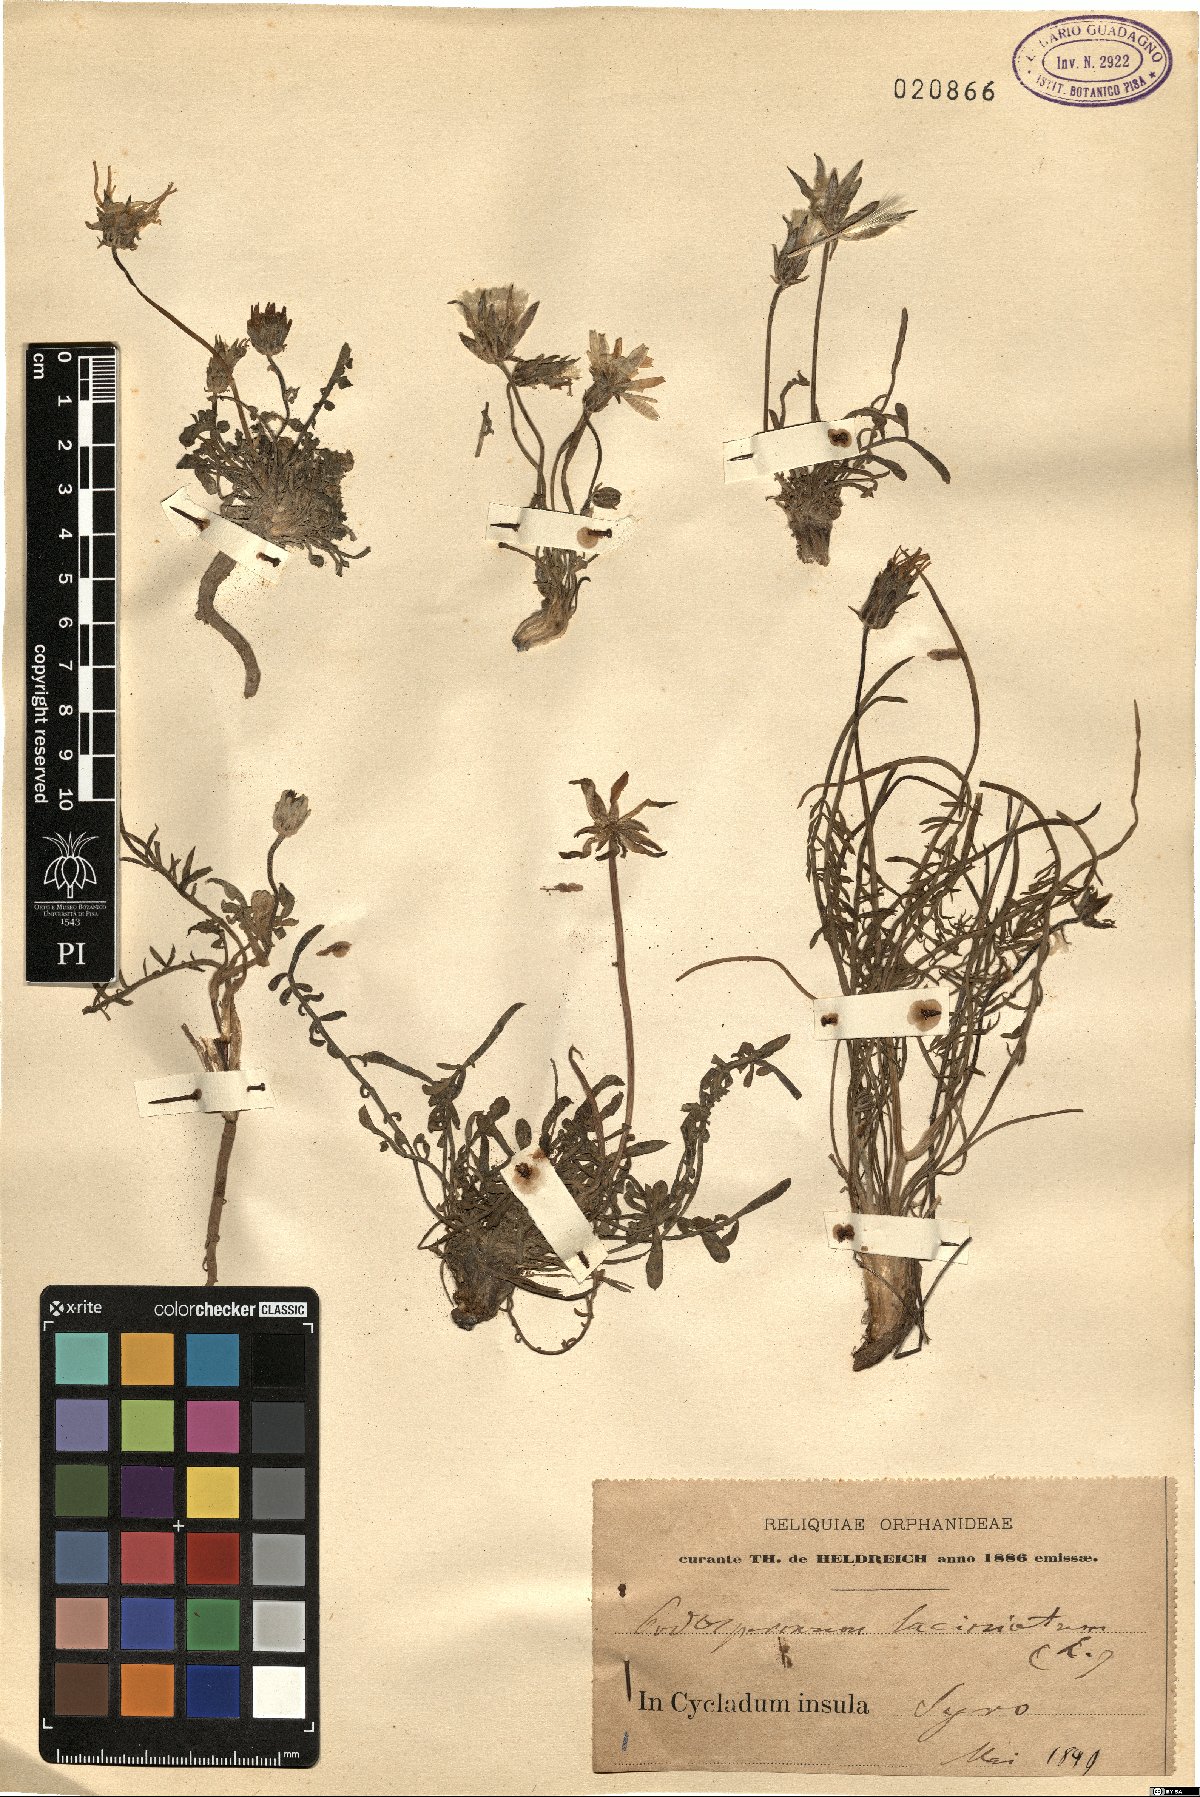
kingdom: Plantae
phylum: Tracheophyta
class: Magnoliopsida
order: Asterales
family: Asteraceae
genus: Scorzonera
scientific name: Scorzonera laciniata
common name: Cutleaf vipergrass
